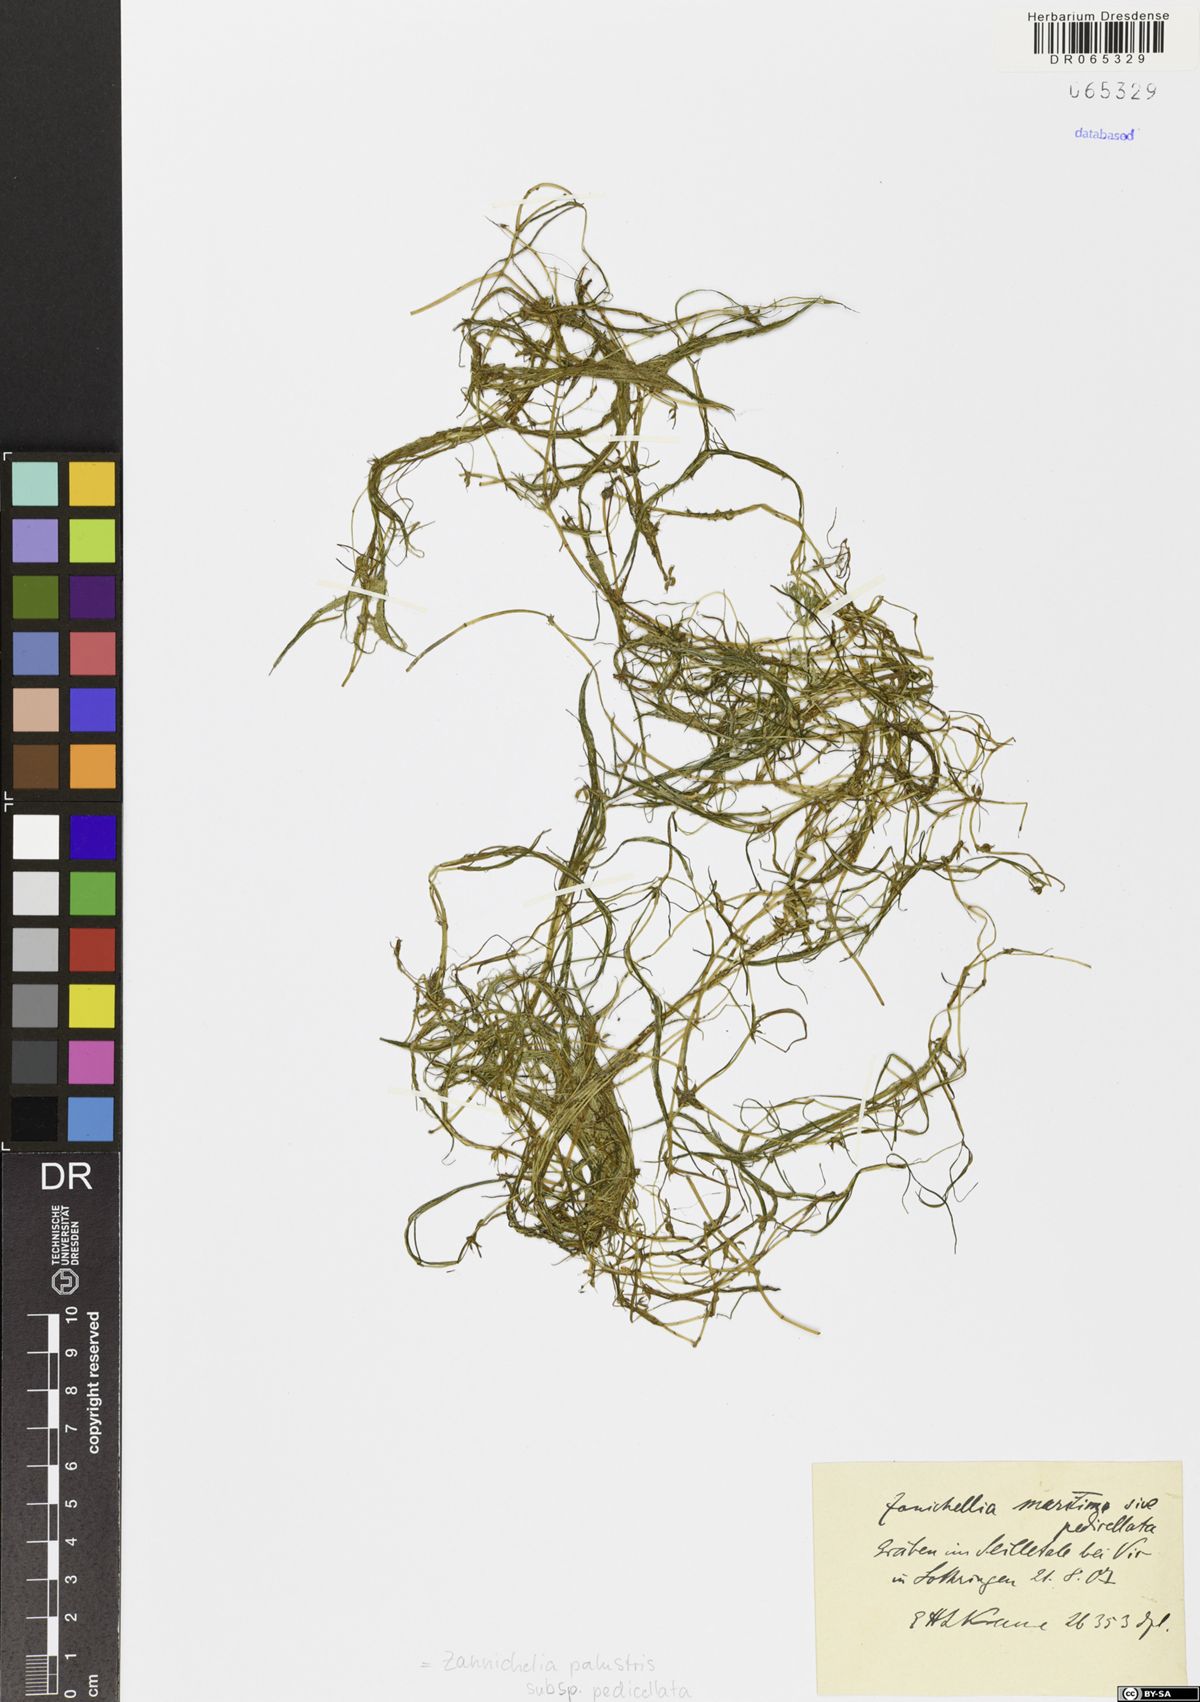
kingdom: Plantae
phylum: Tracheophyta
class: Liliopsida
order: Alismatales
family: Potamogetonaceae
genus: Zannichellia
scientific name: Zannichellia palustris
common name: Horned pondweed
